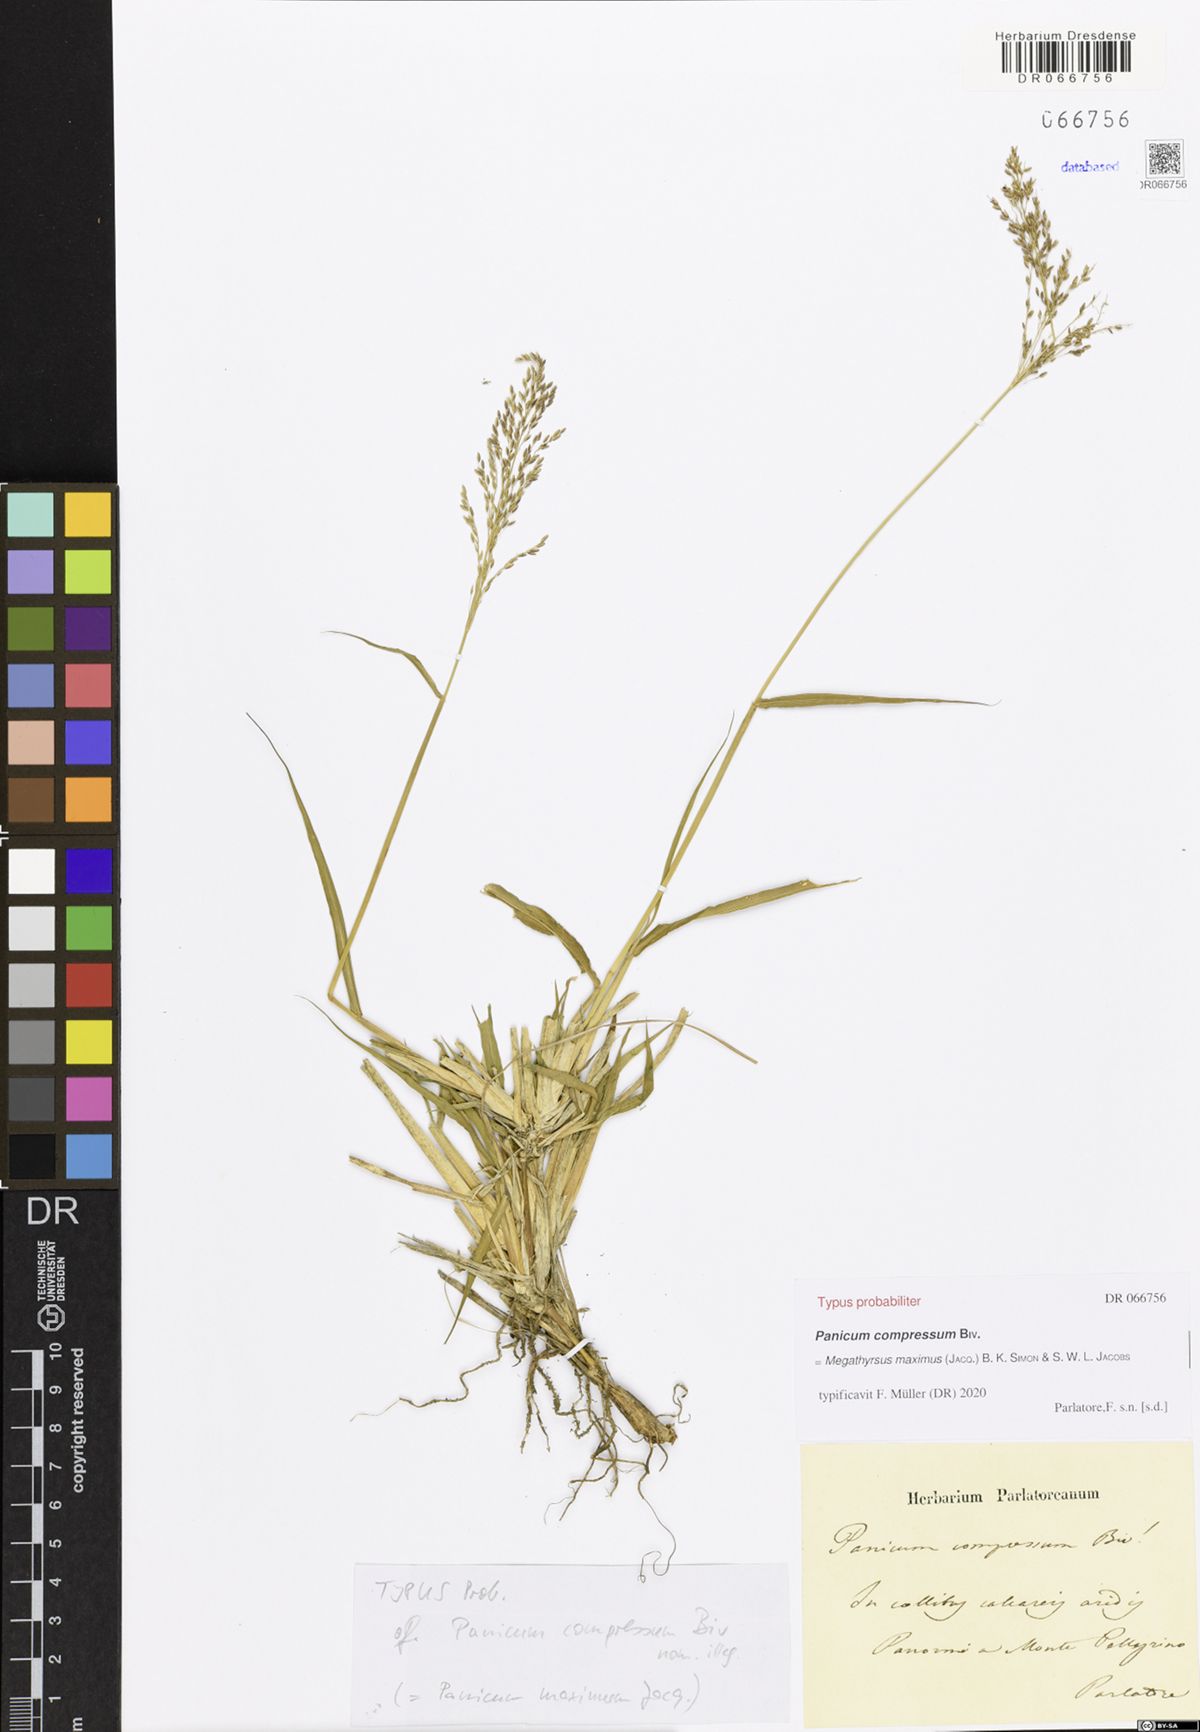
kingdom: Plantae
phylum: Tracheophyta
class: Liliopsida
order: Poales
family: Poaceae
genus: Megathyrsus
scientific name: Megathyrsus maximus
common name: Guineagrass
